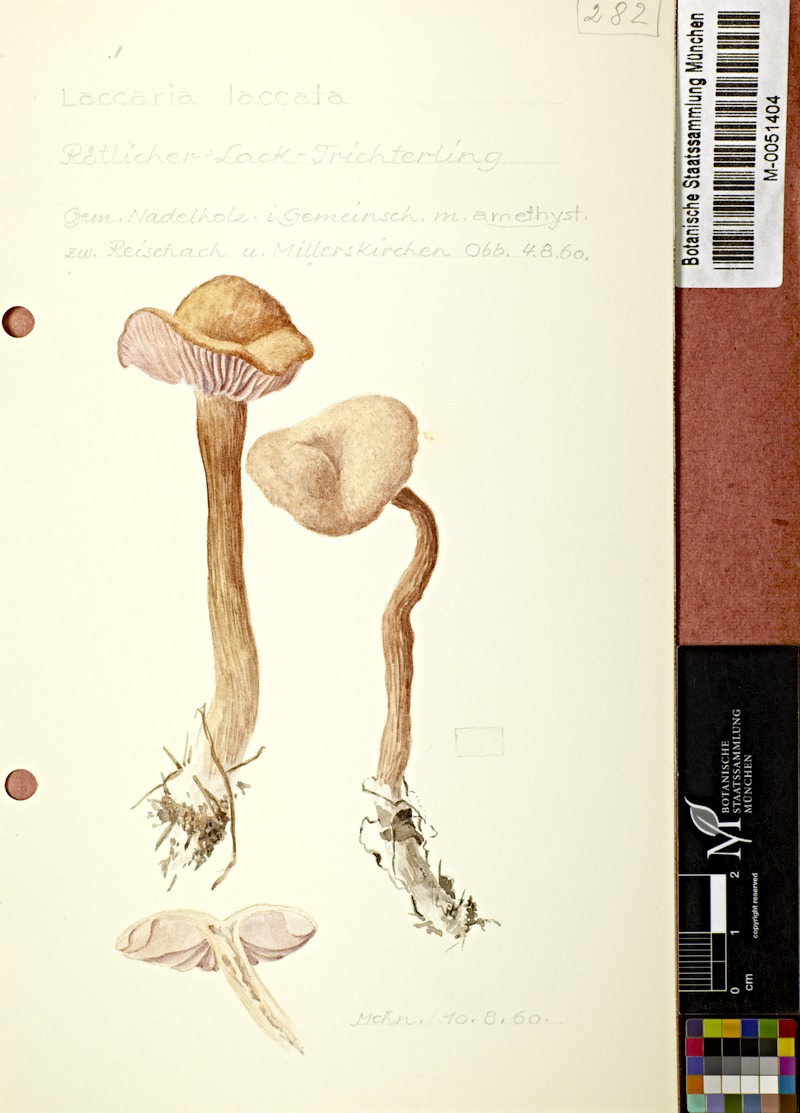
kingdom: Fungi
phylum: Basidiomycota
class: Agaricomycetes
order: Agaricales
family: Hydnangiaceae
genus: Laccaria
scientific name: Laccaria laccata
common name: Deceiver
